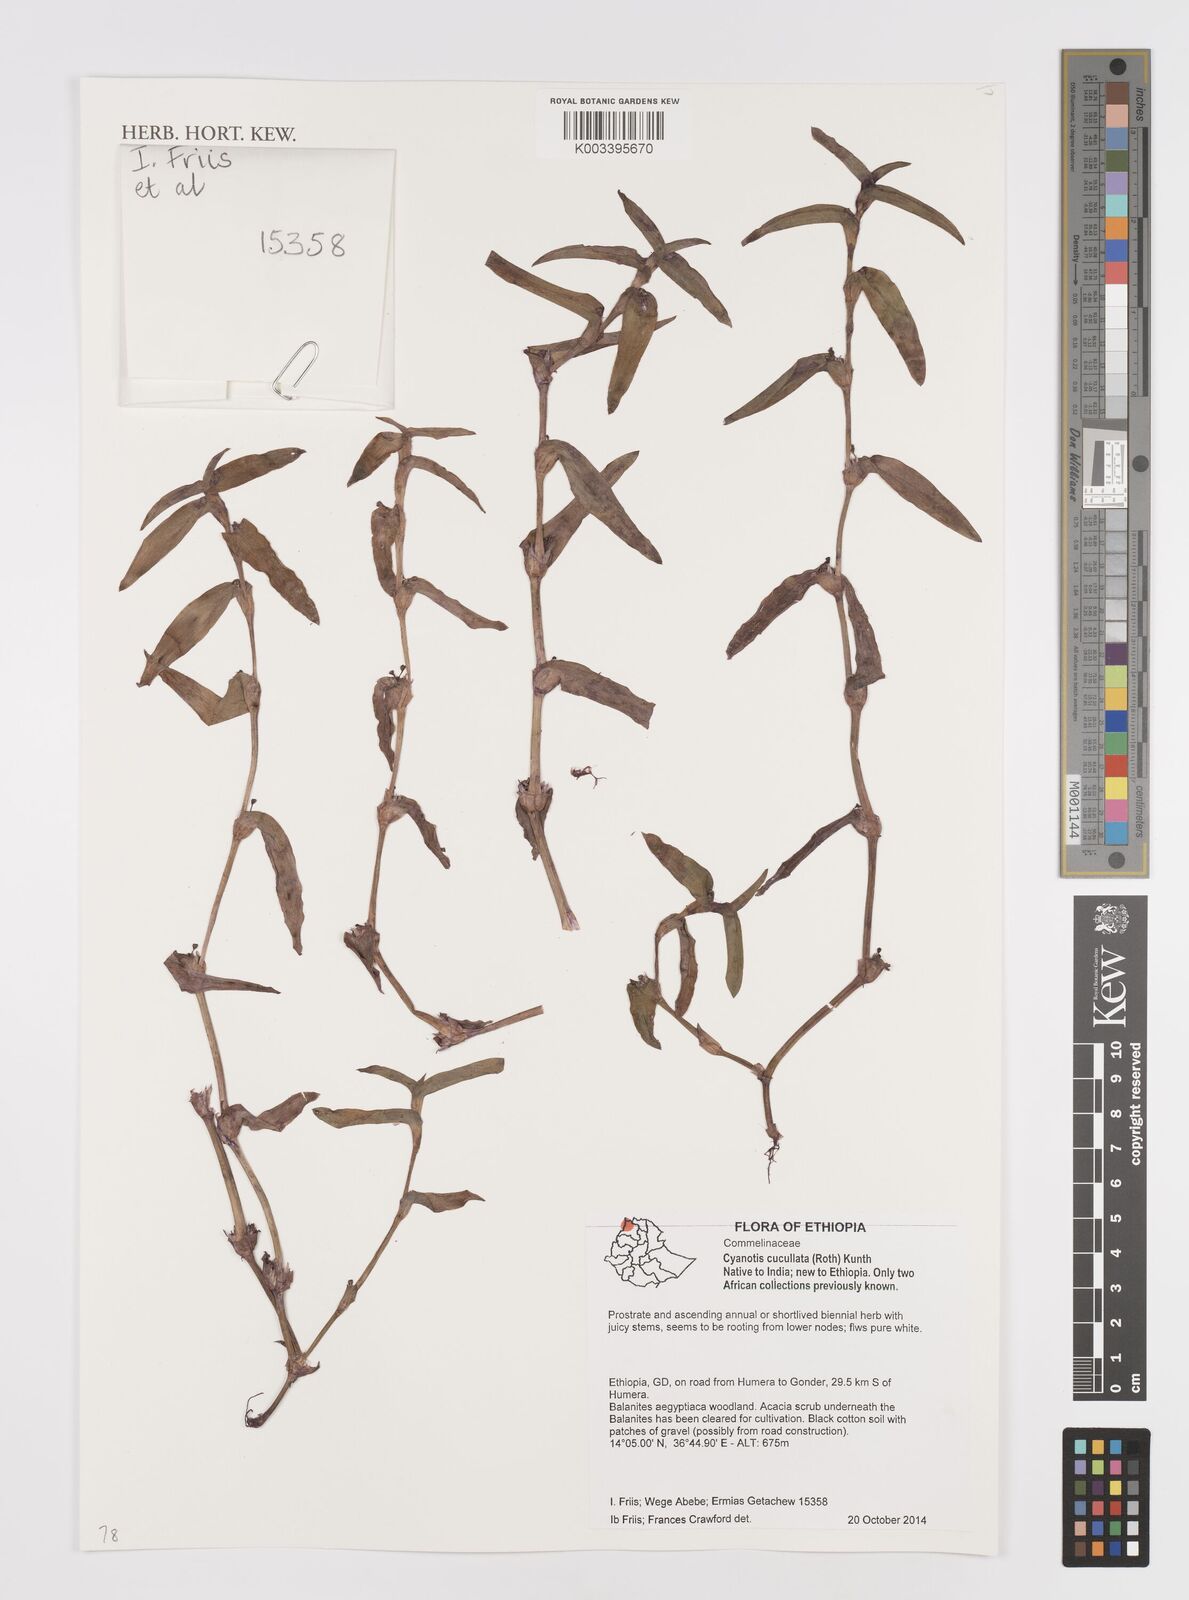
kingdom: Plantae
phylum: Tracheophyta
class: Liliopsida
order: Commelinales
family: Commelinaceae
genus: Cyanotis
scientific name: Cyanotis cucullata
